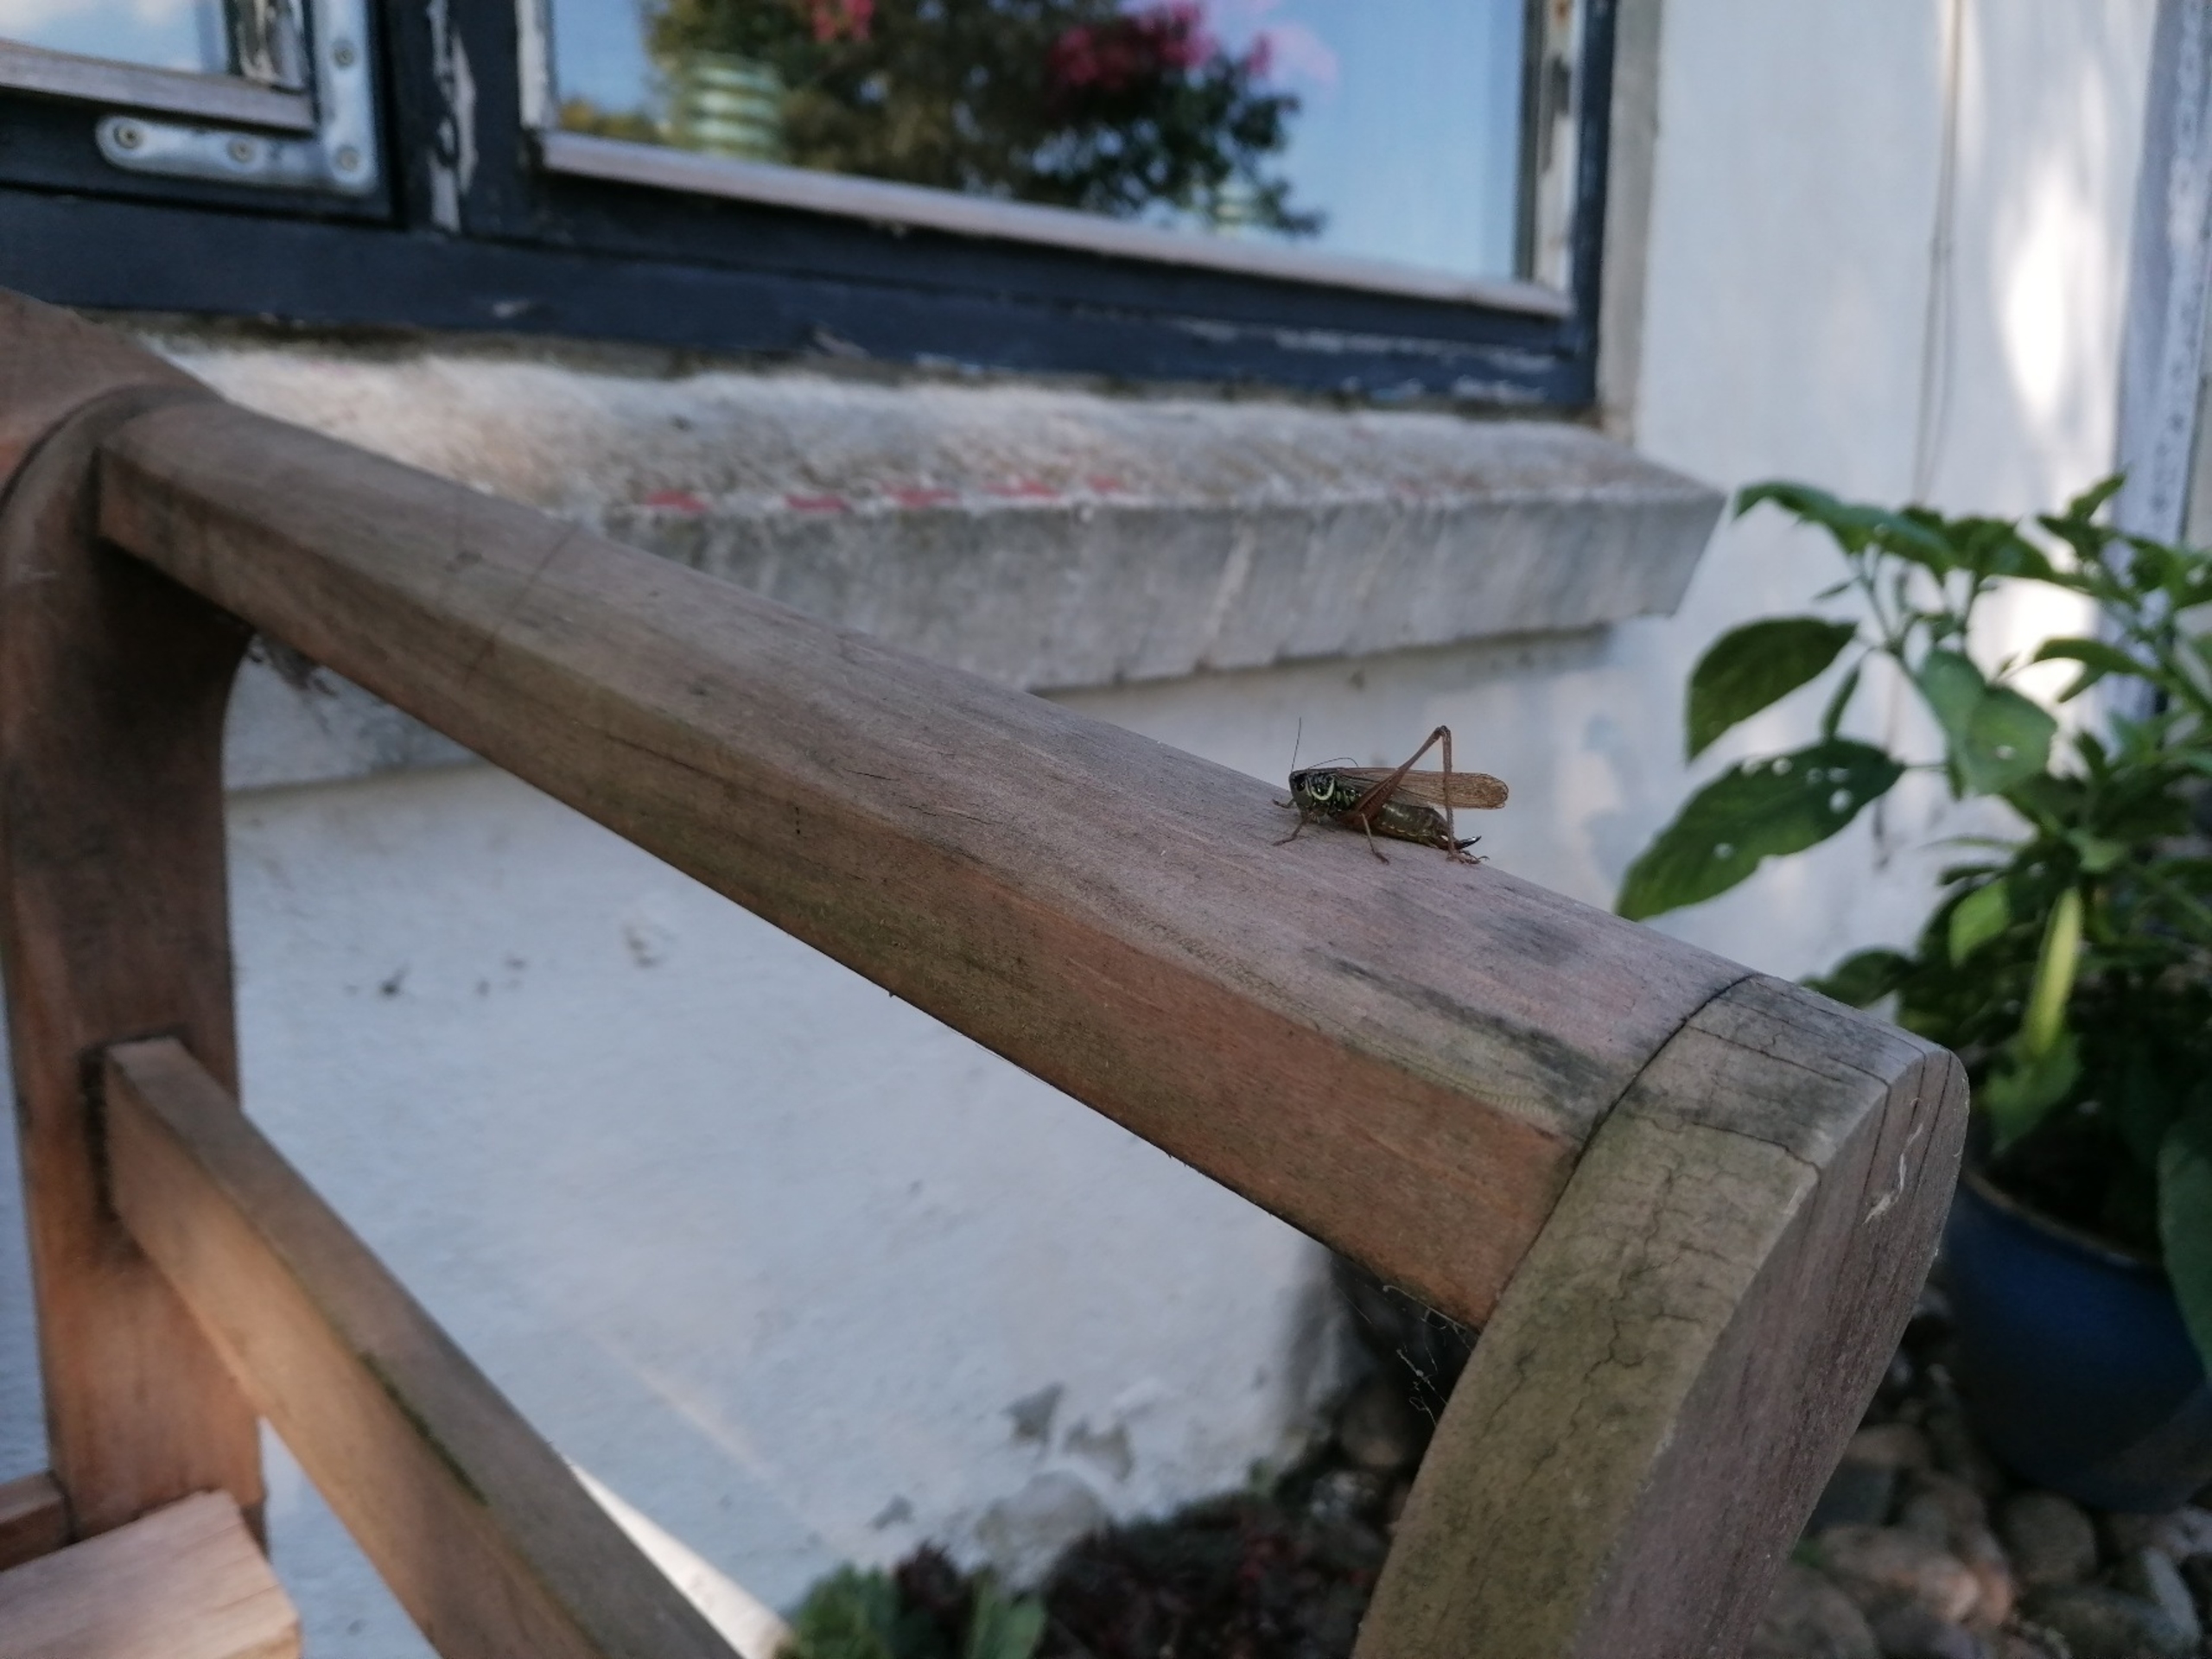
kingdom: Animalia
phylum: Arthropoda
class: Insecta
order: Orthoptera
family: Tettigoniidae
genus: Roeseliana
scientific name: Roeseliana roeselii
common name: Cikadegræshoppe
